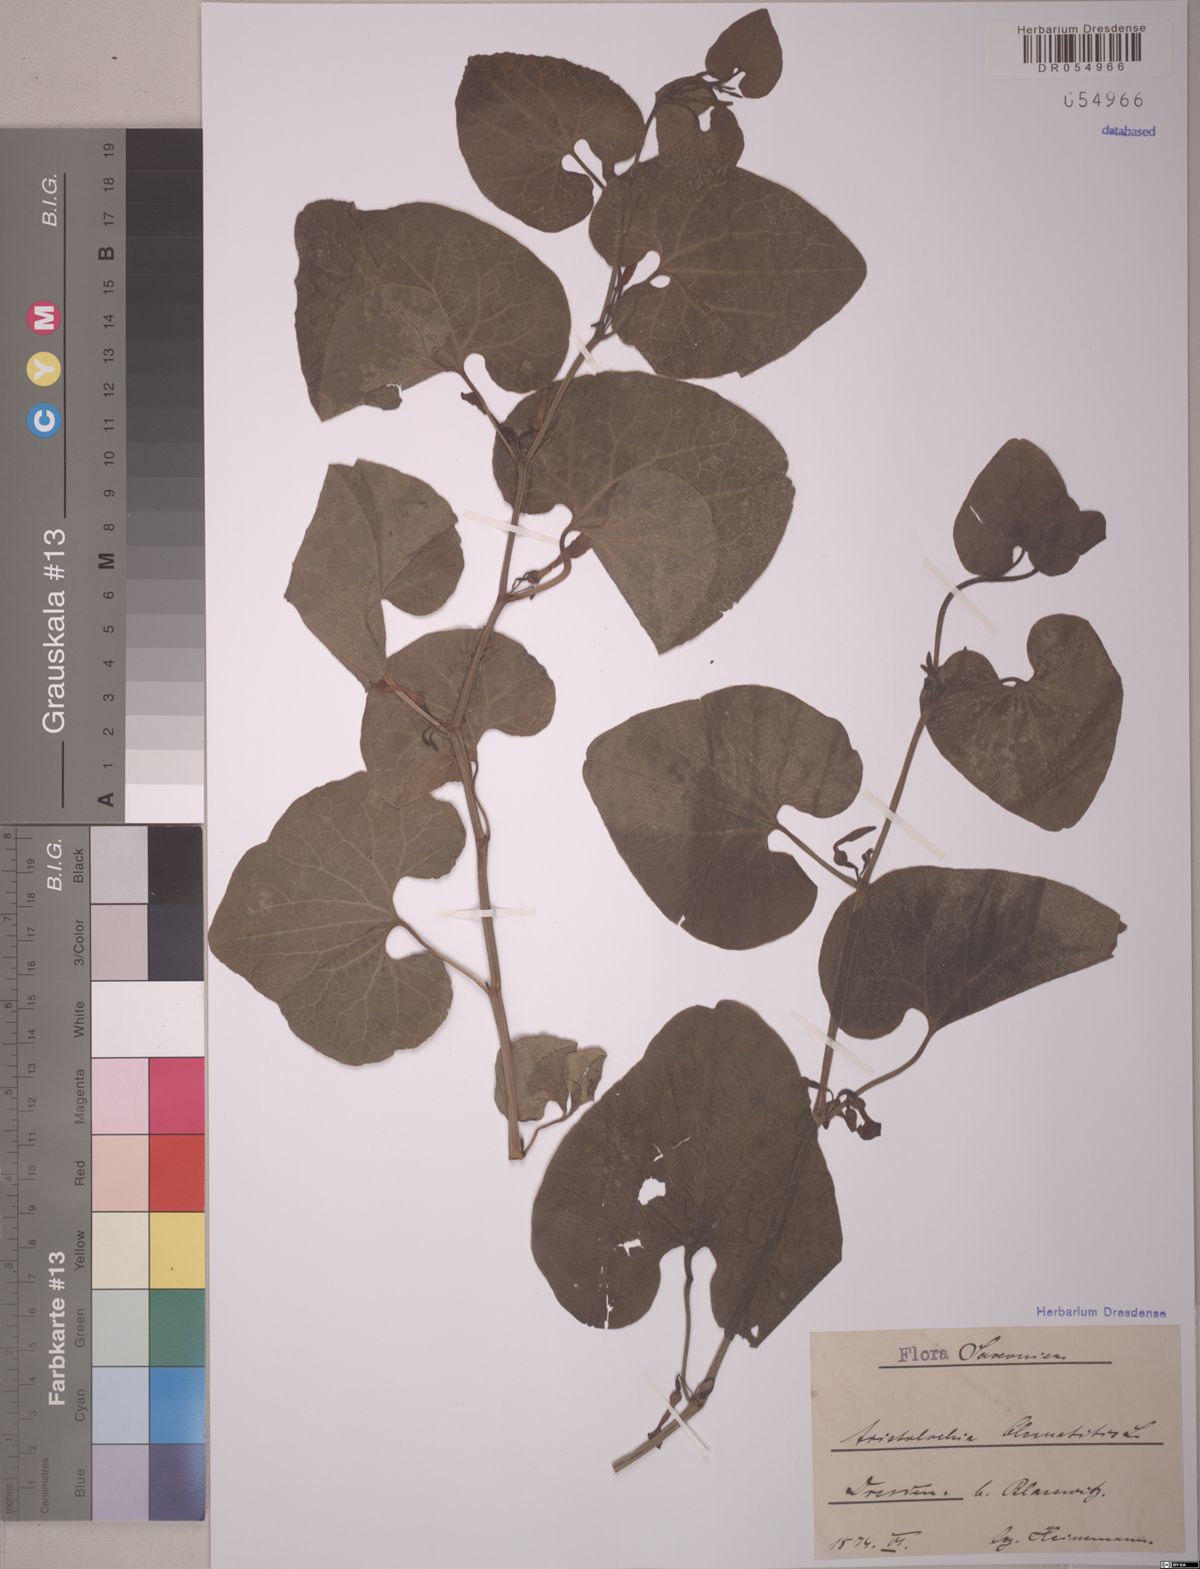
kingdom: Plantae
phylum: Tracheophyta
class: Magnoliopsida
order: Piperales
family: Aristolochiaceae
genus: Aristolochia
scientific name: Aristolochia clematitis
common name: Birthwort
